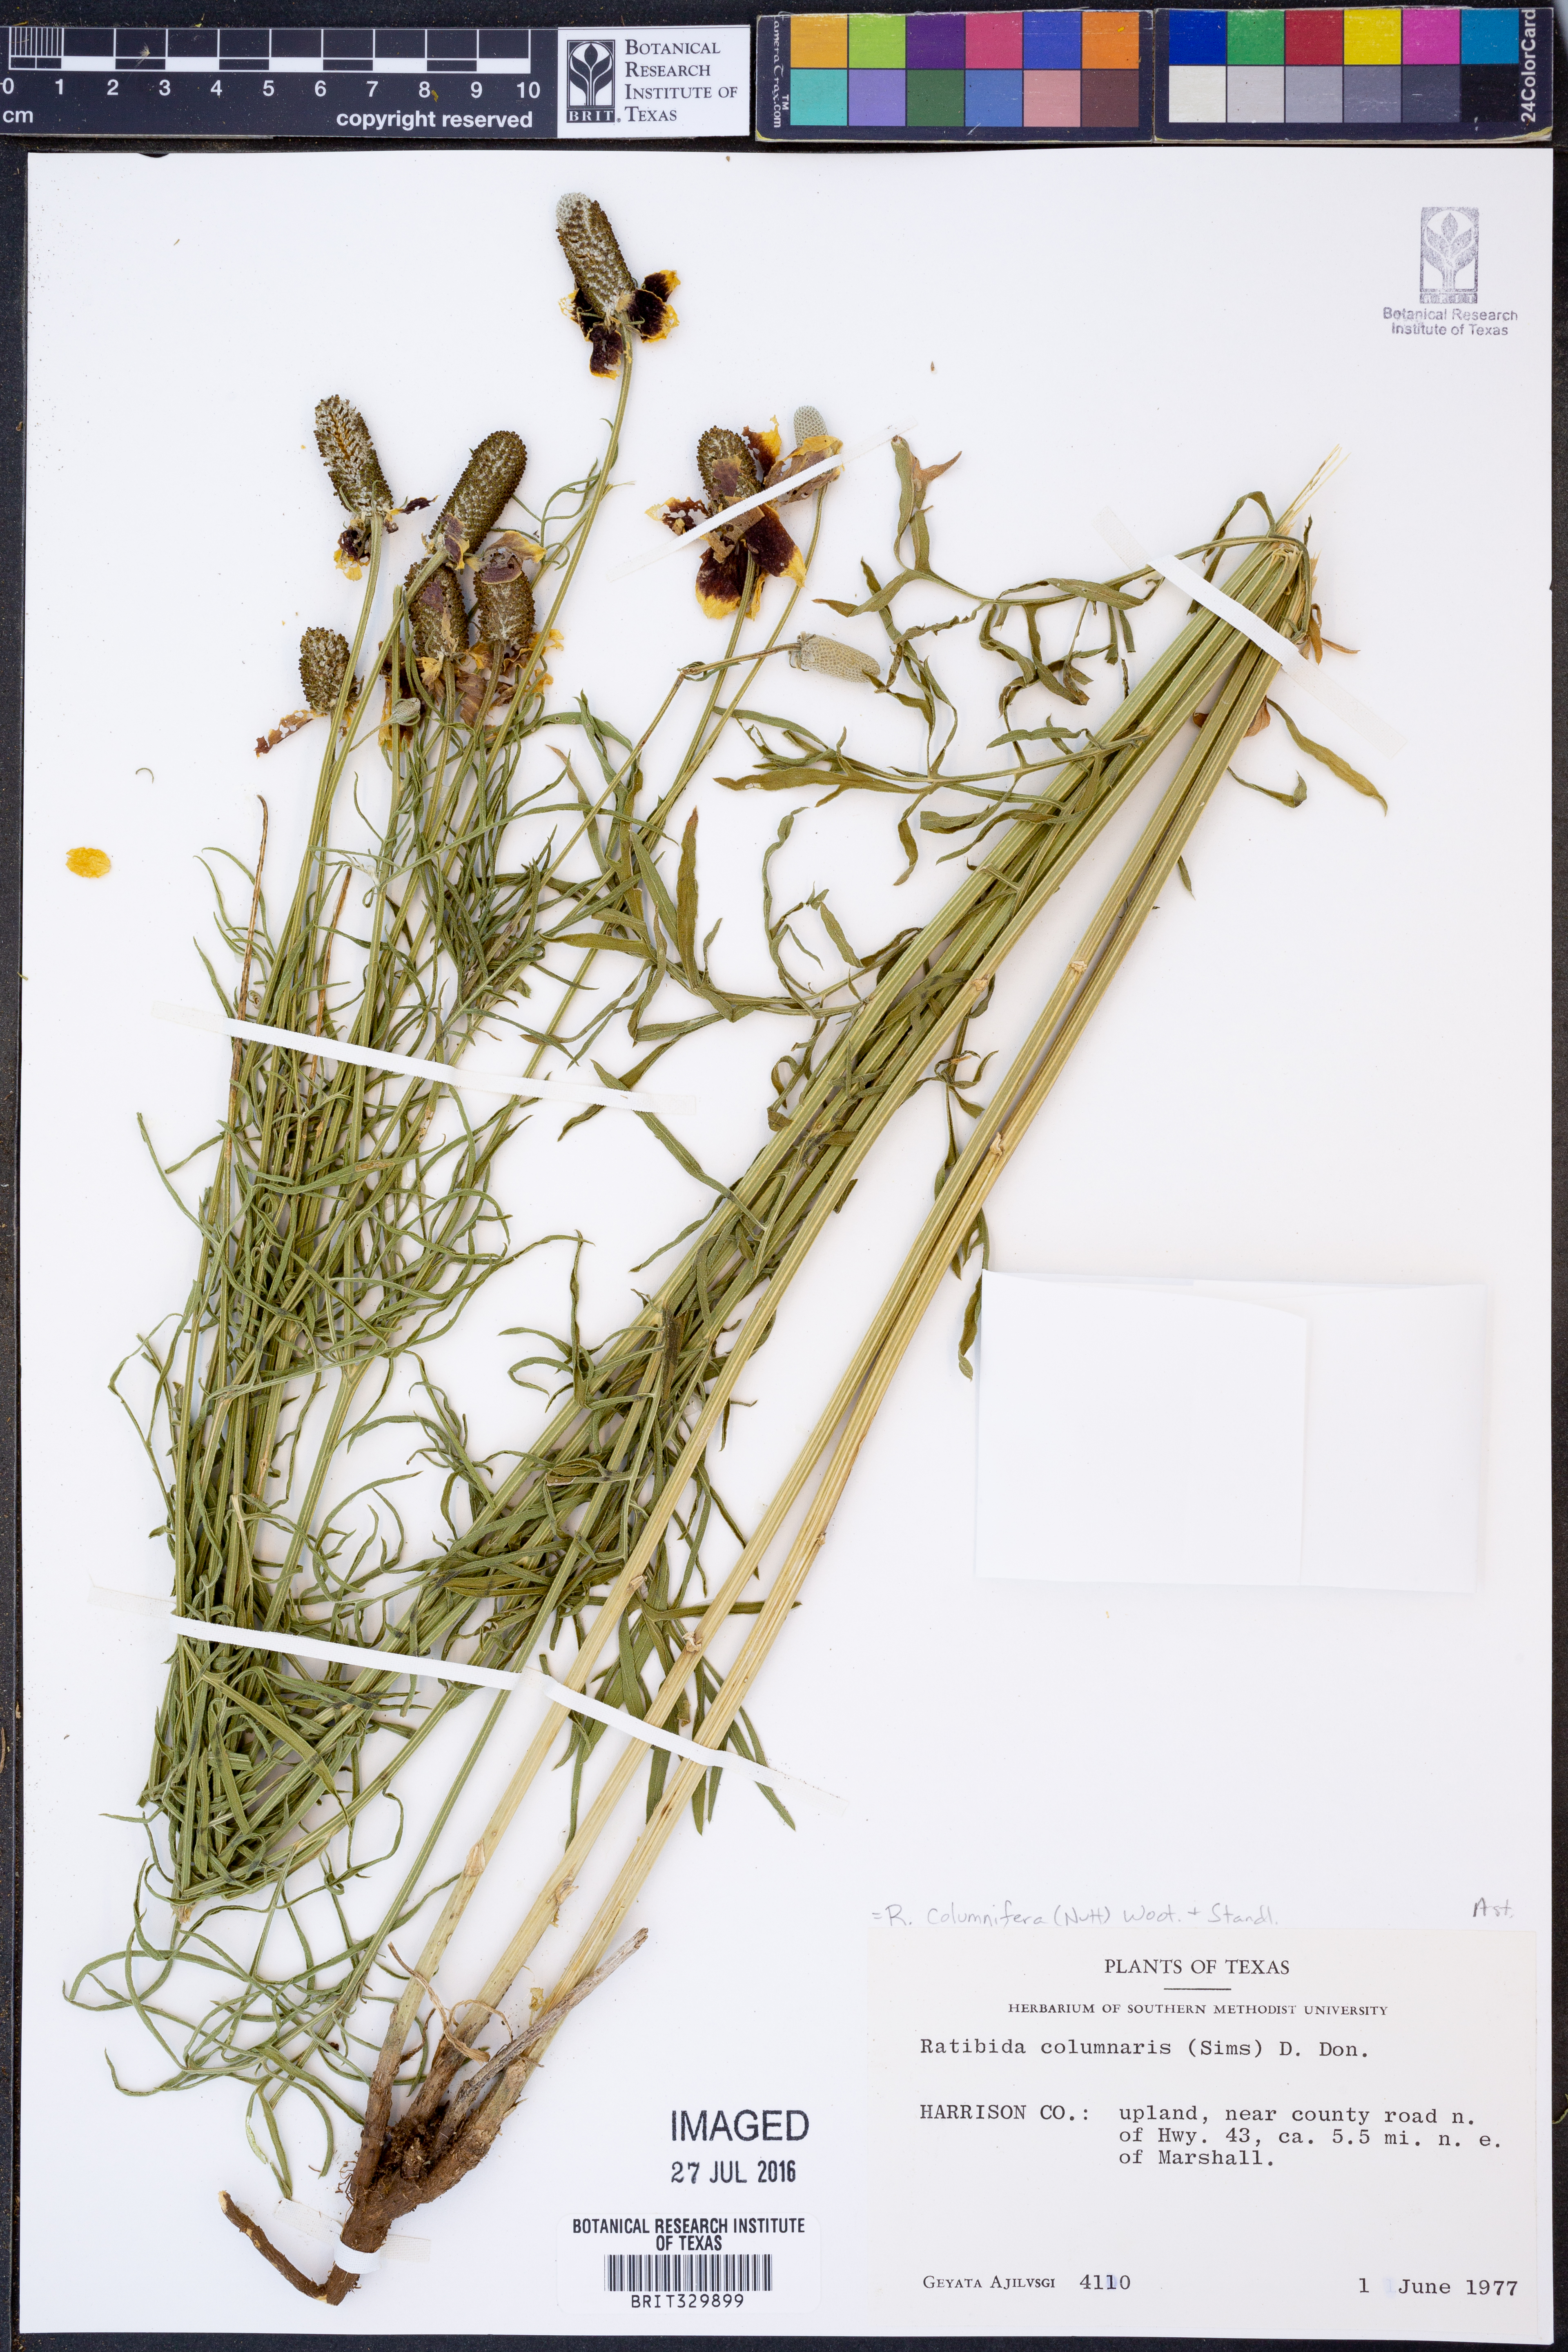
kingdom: Plantae
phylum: Tracheophyta
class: Magnoliopsida
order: Asterales
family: Asteraceae
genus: Ratibida
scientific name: Ratibida columnifera
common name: Prairie coneflower
